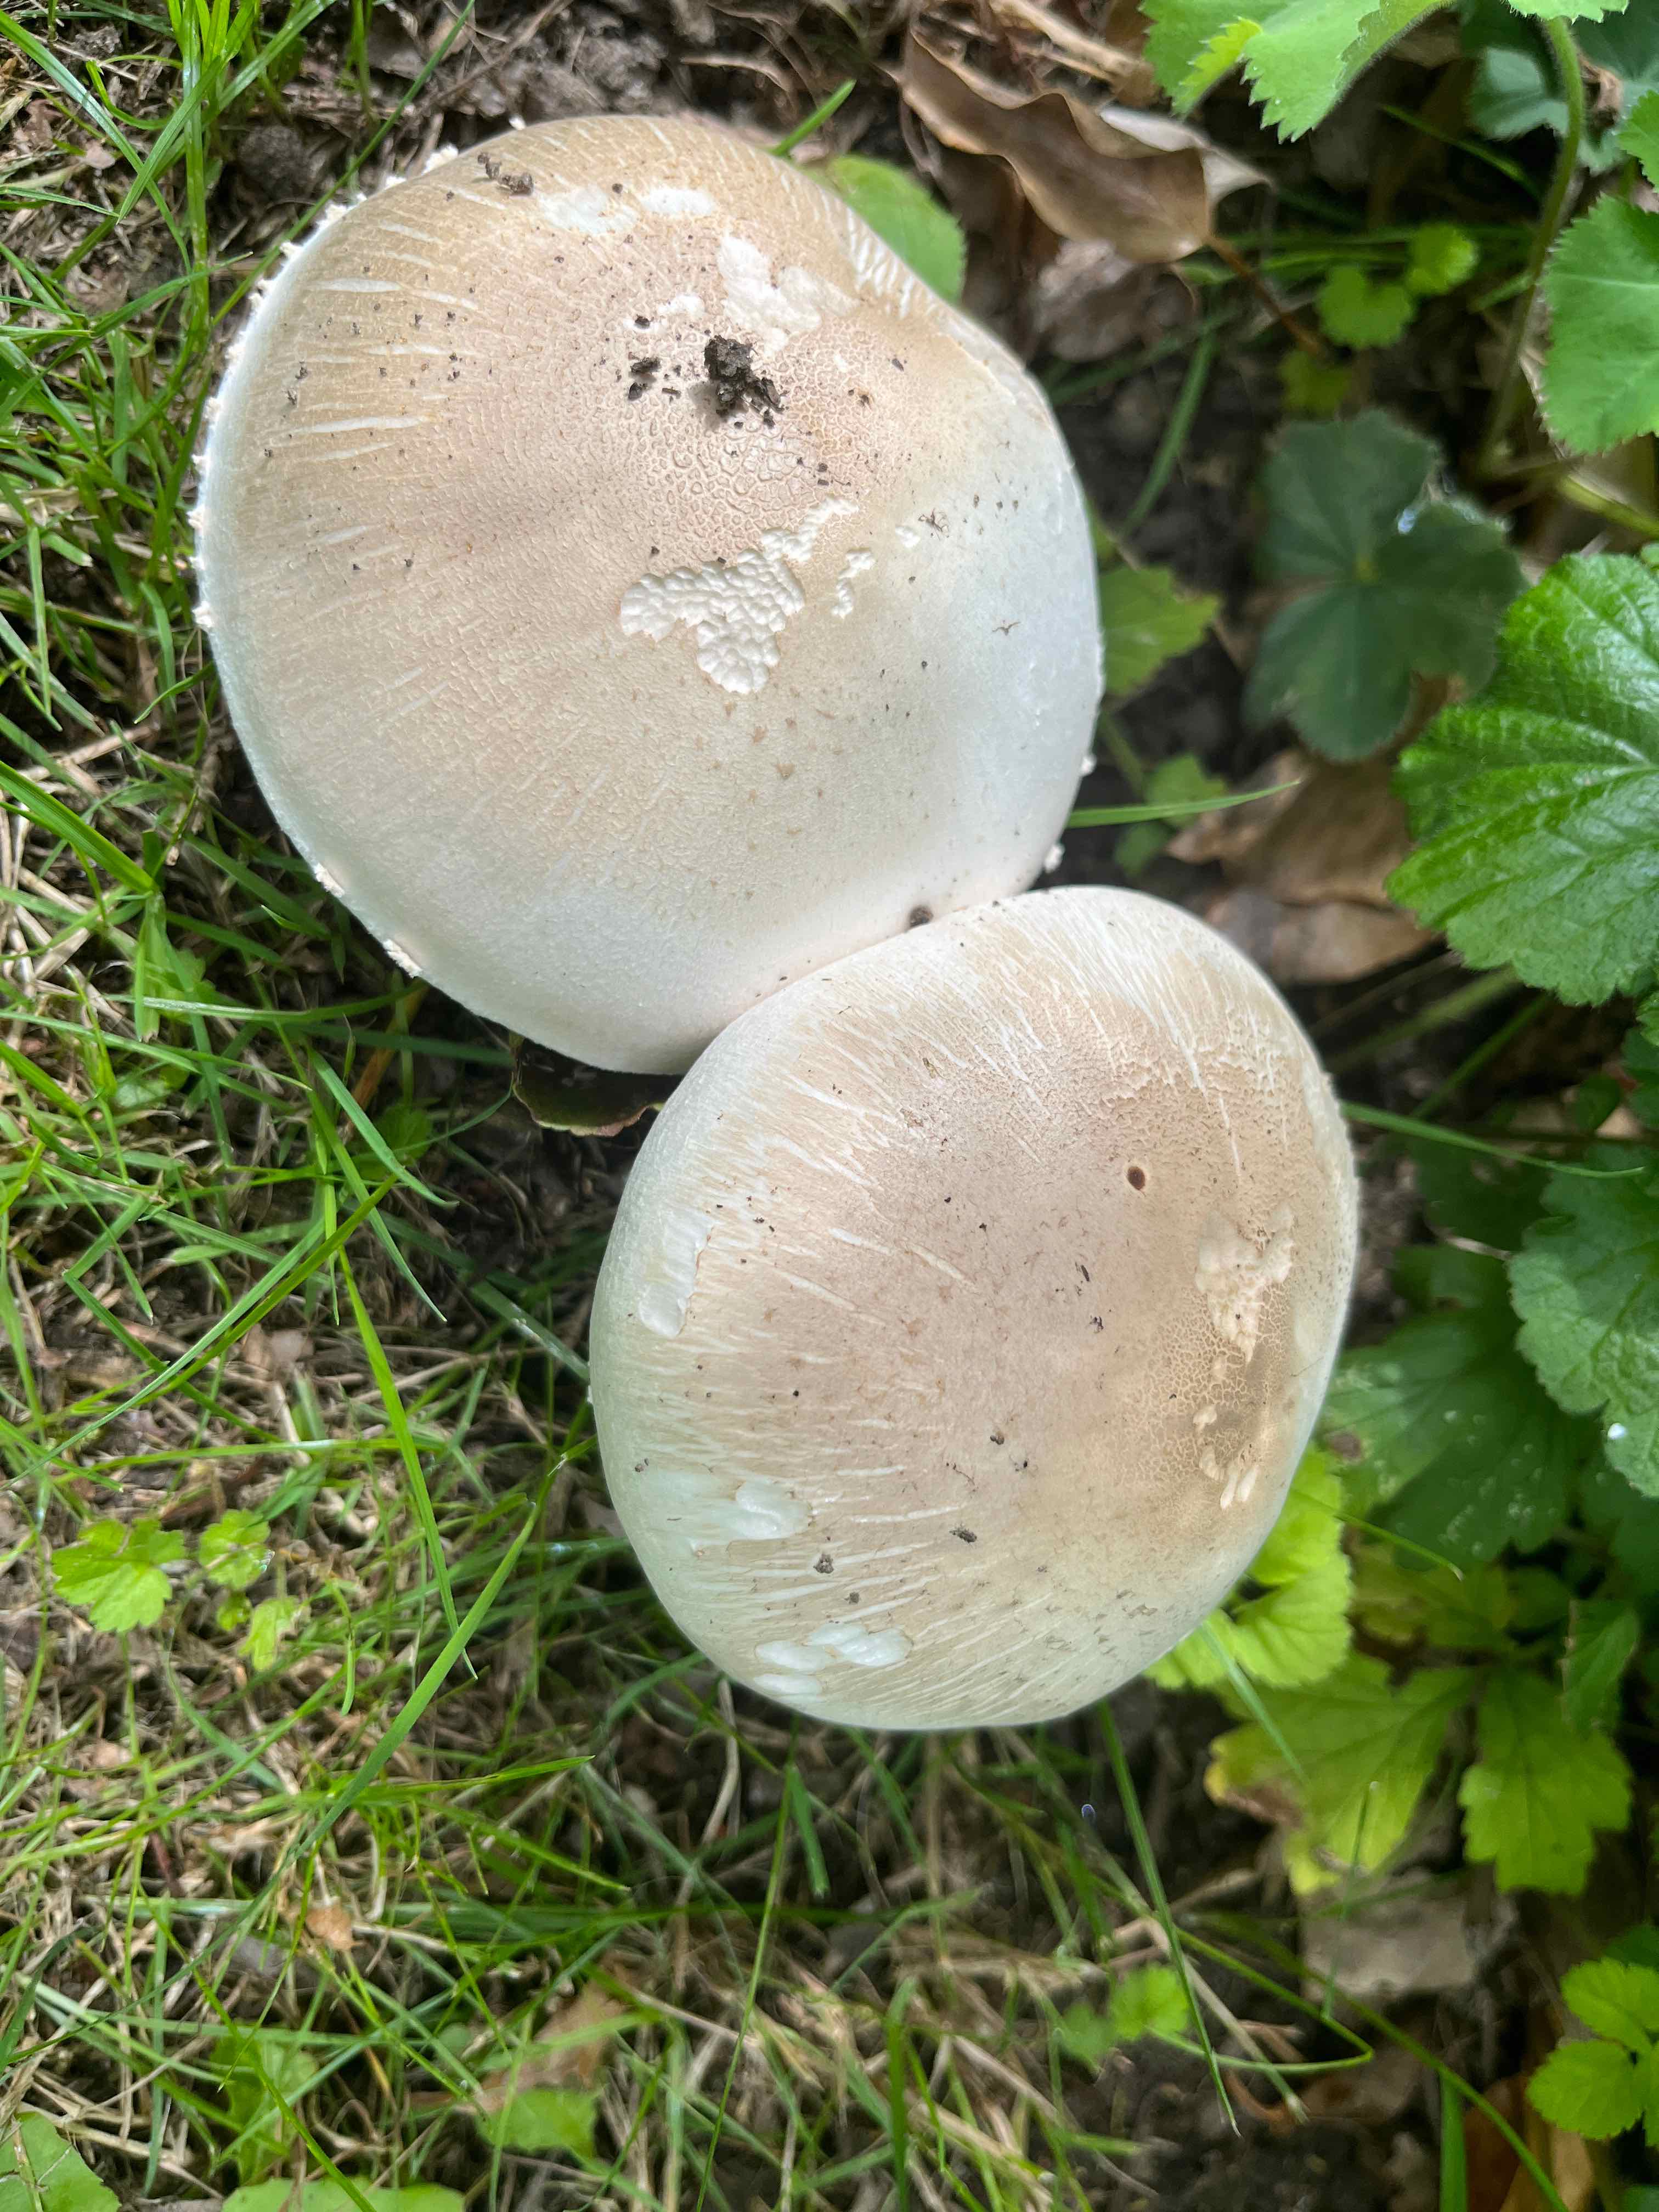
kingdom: Fungi
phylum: Basidiomycota
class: Agaricomycetes
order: Agaricales
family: Agaricaceae
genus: Agaricus
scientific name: Agaricus xanthodermus
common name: karbol-champignon
